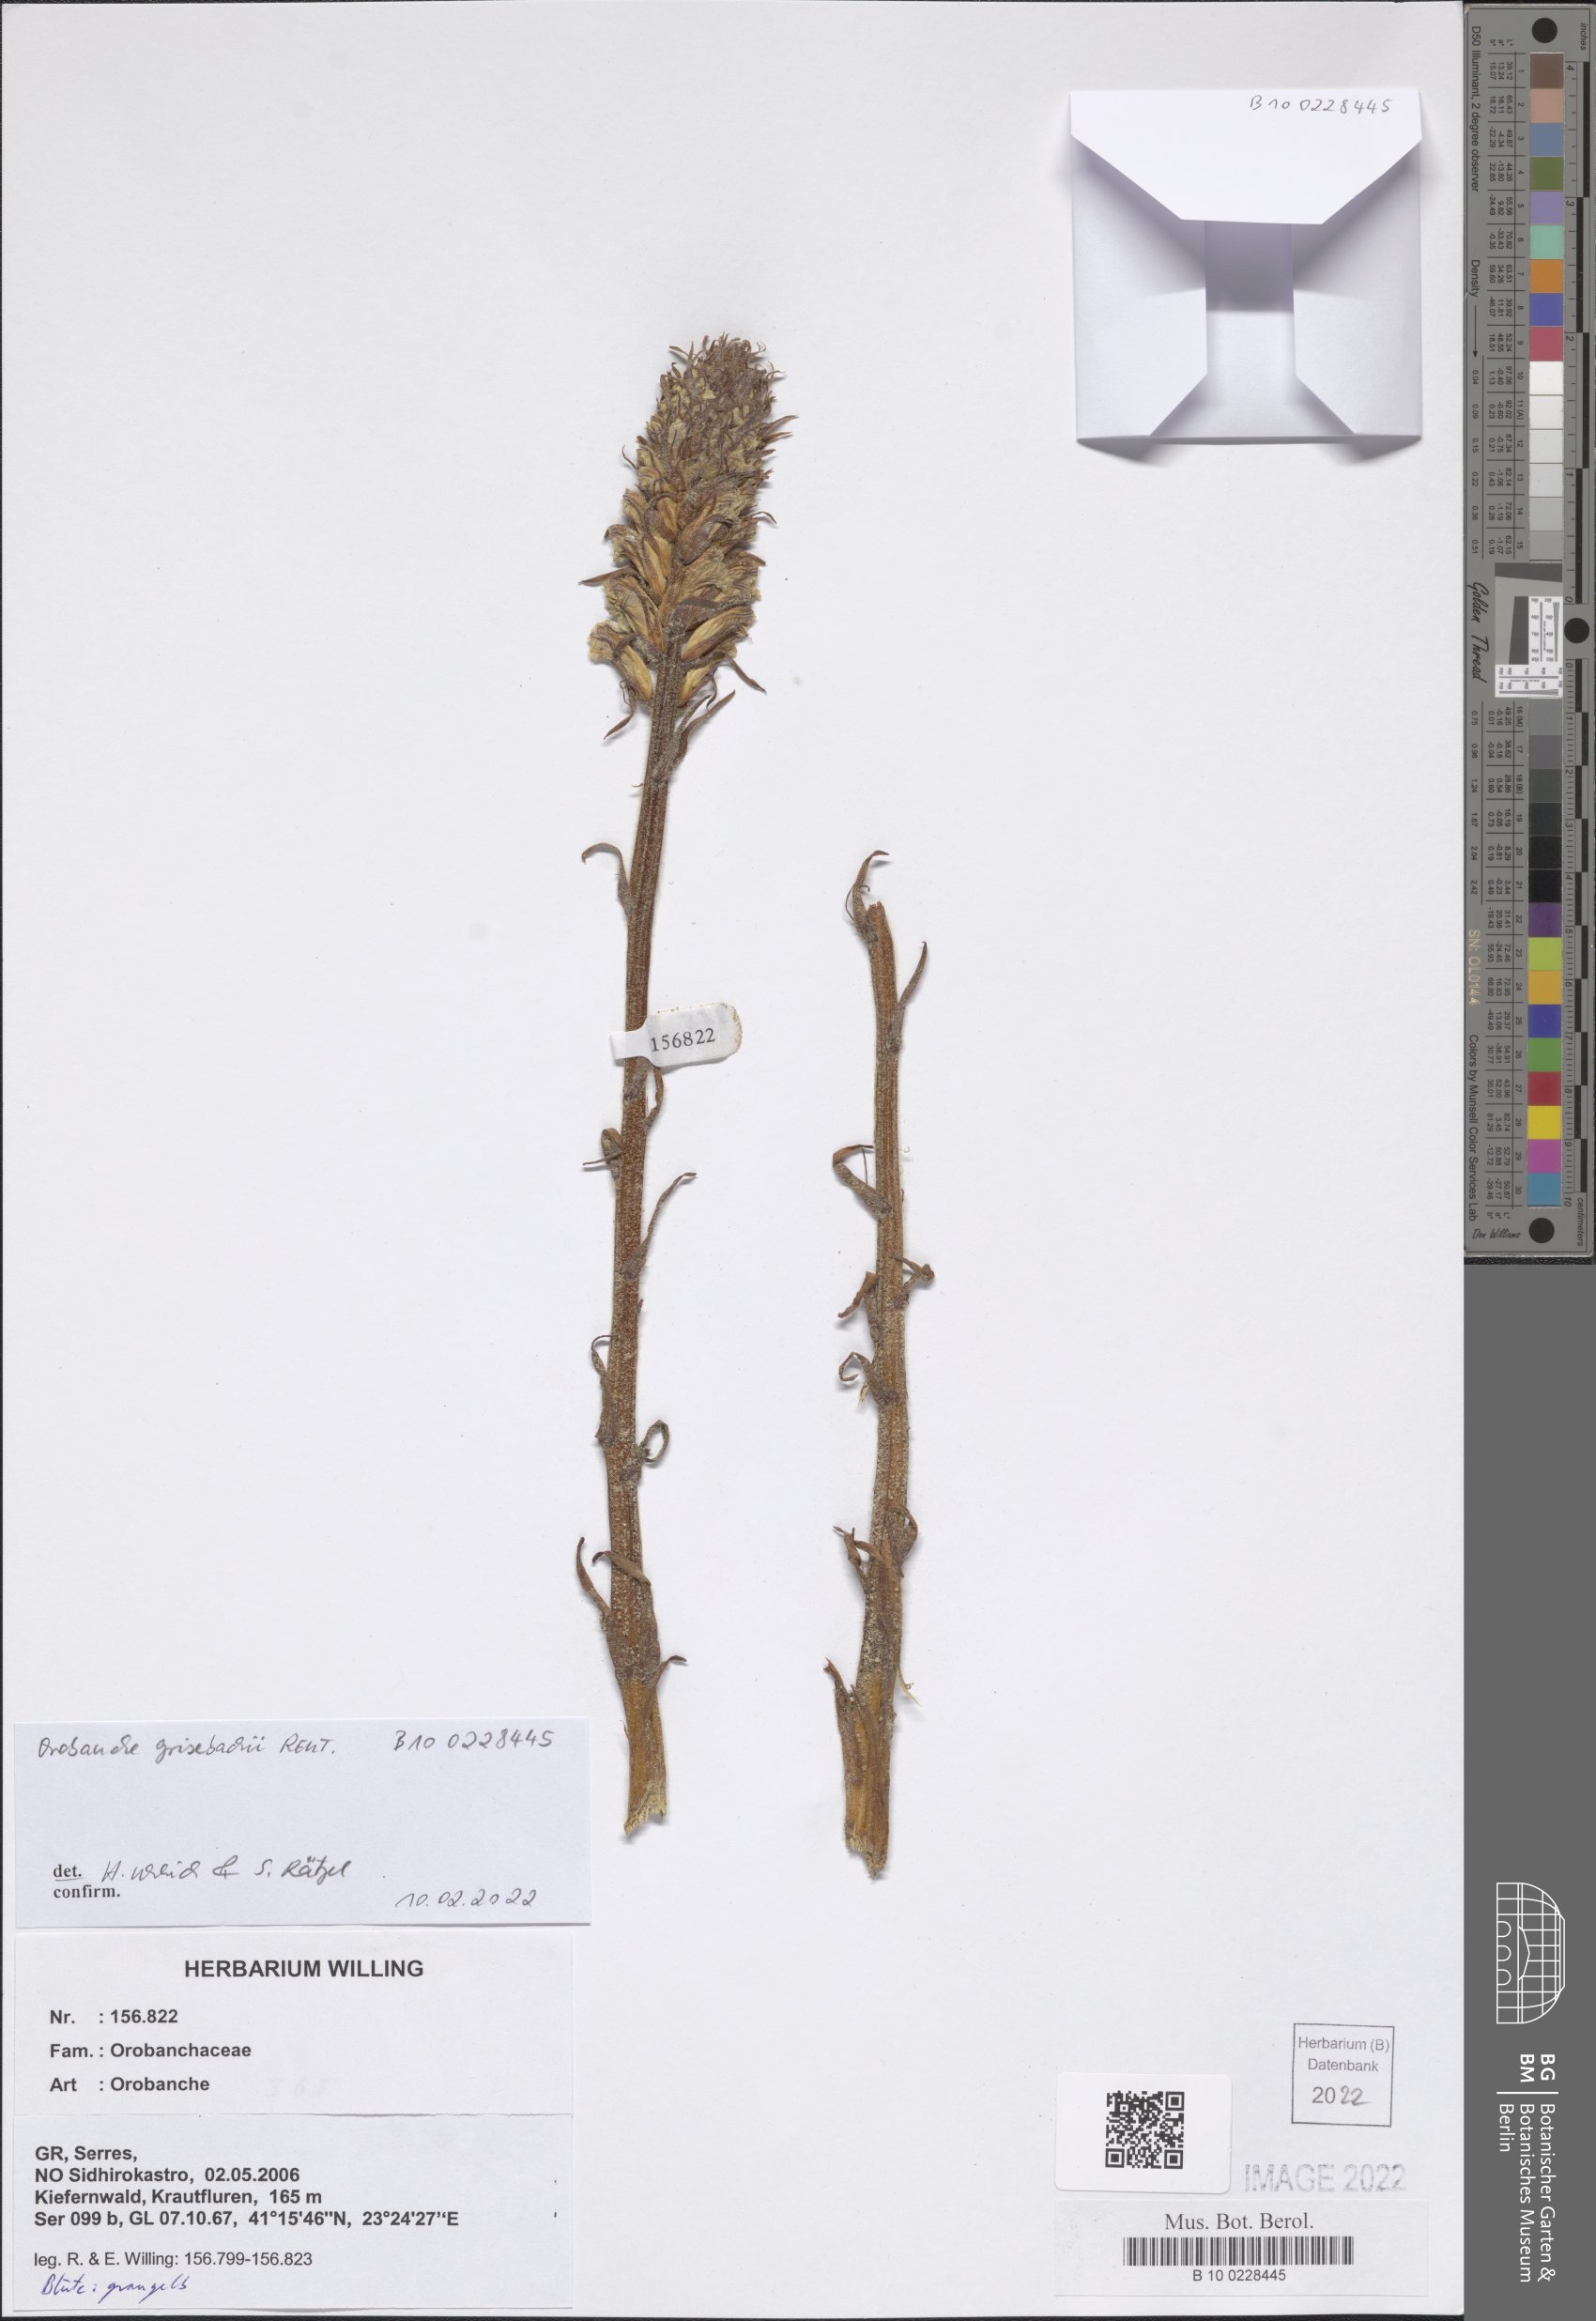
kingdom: Plantae
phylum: Tracheophyta
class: Magnoliopsida
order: Lamiales
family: Orobanchaceae
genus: Orobanche
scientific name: Orobanche grisebachii
